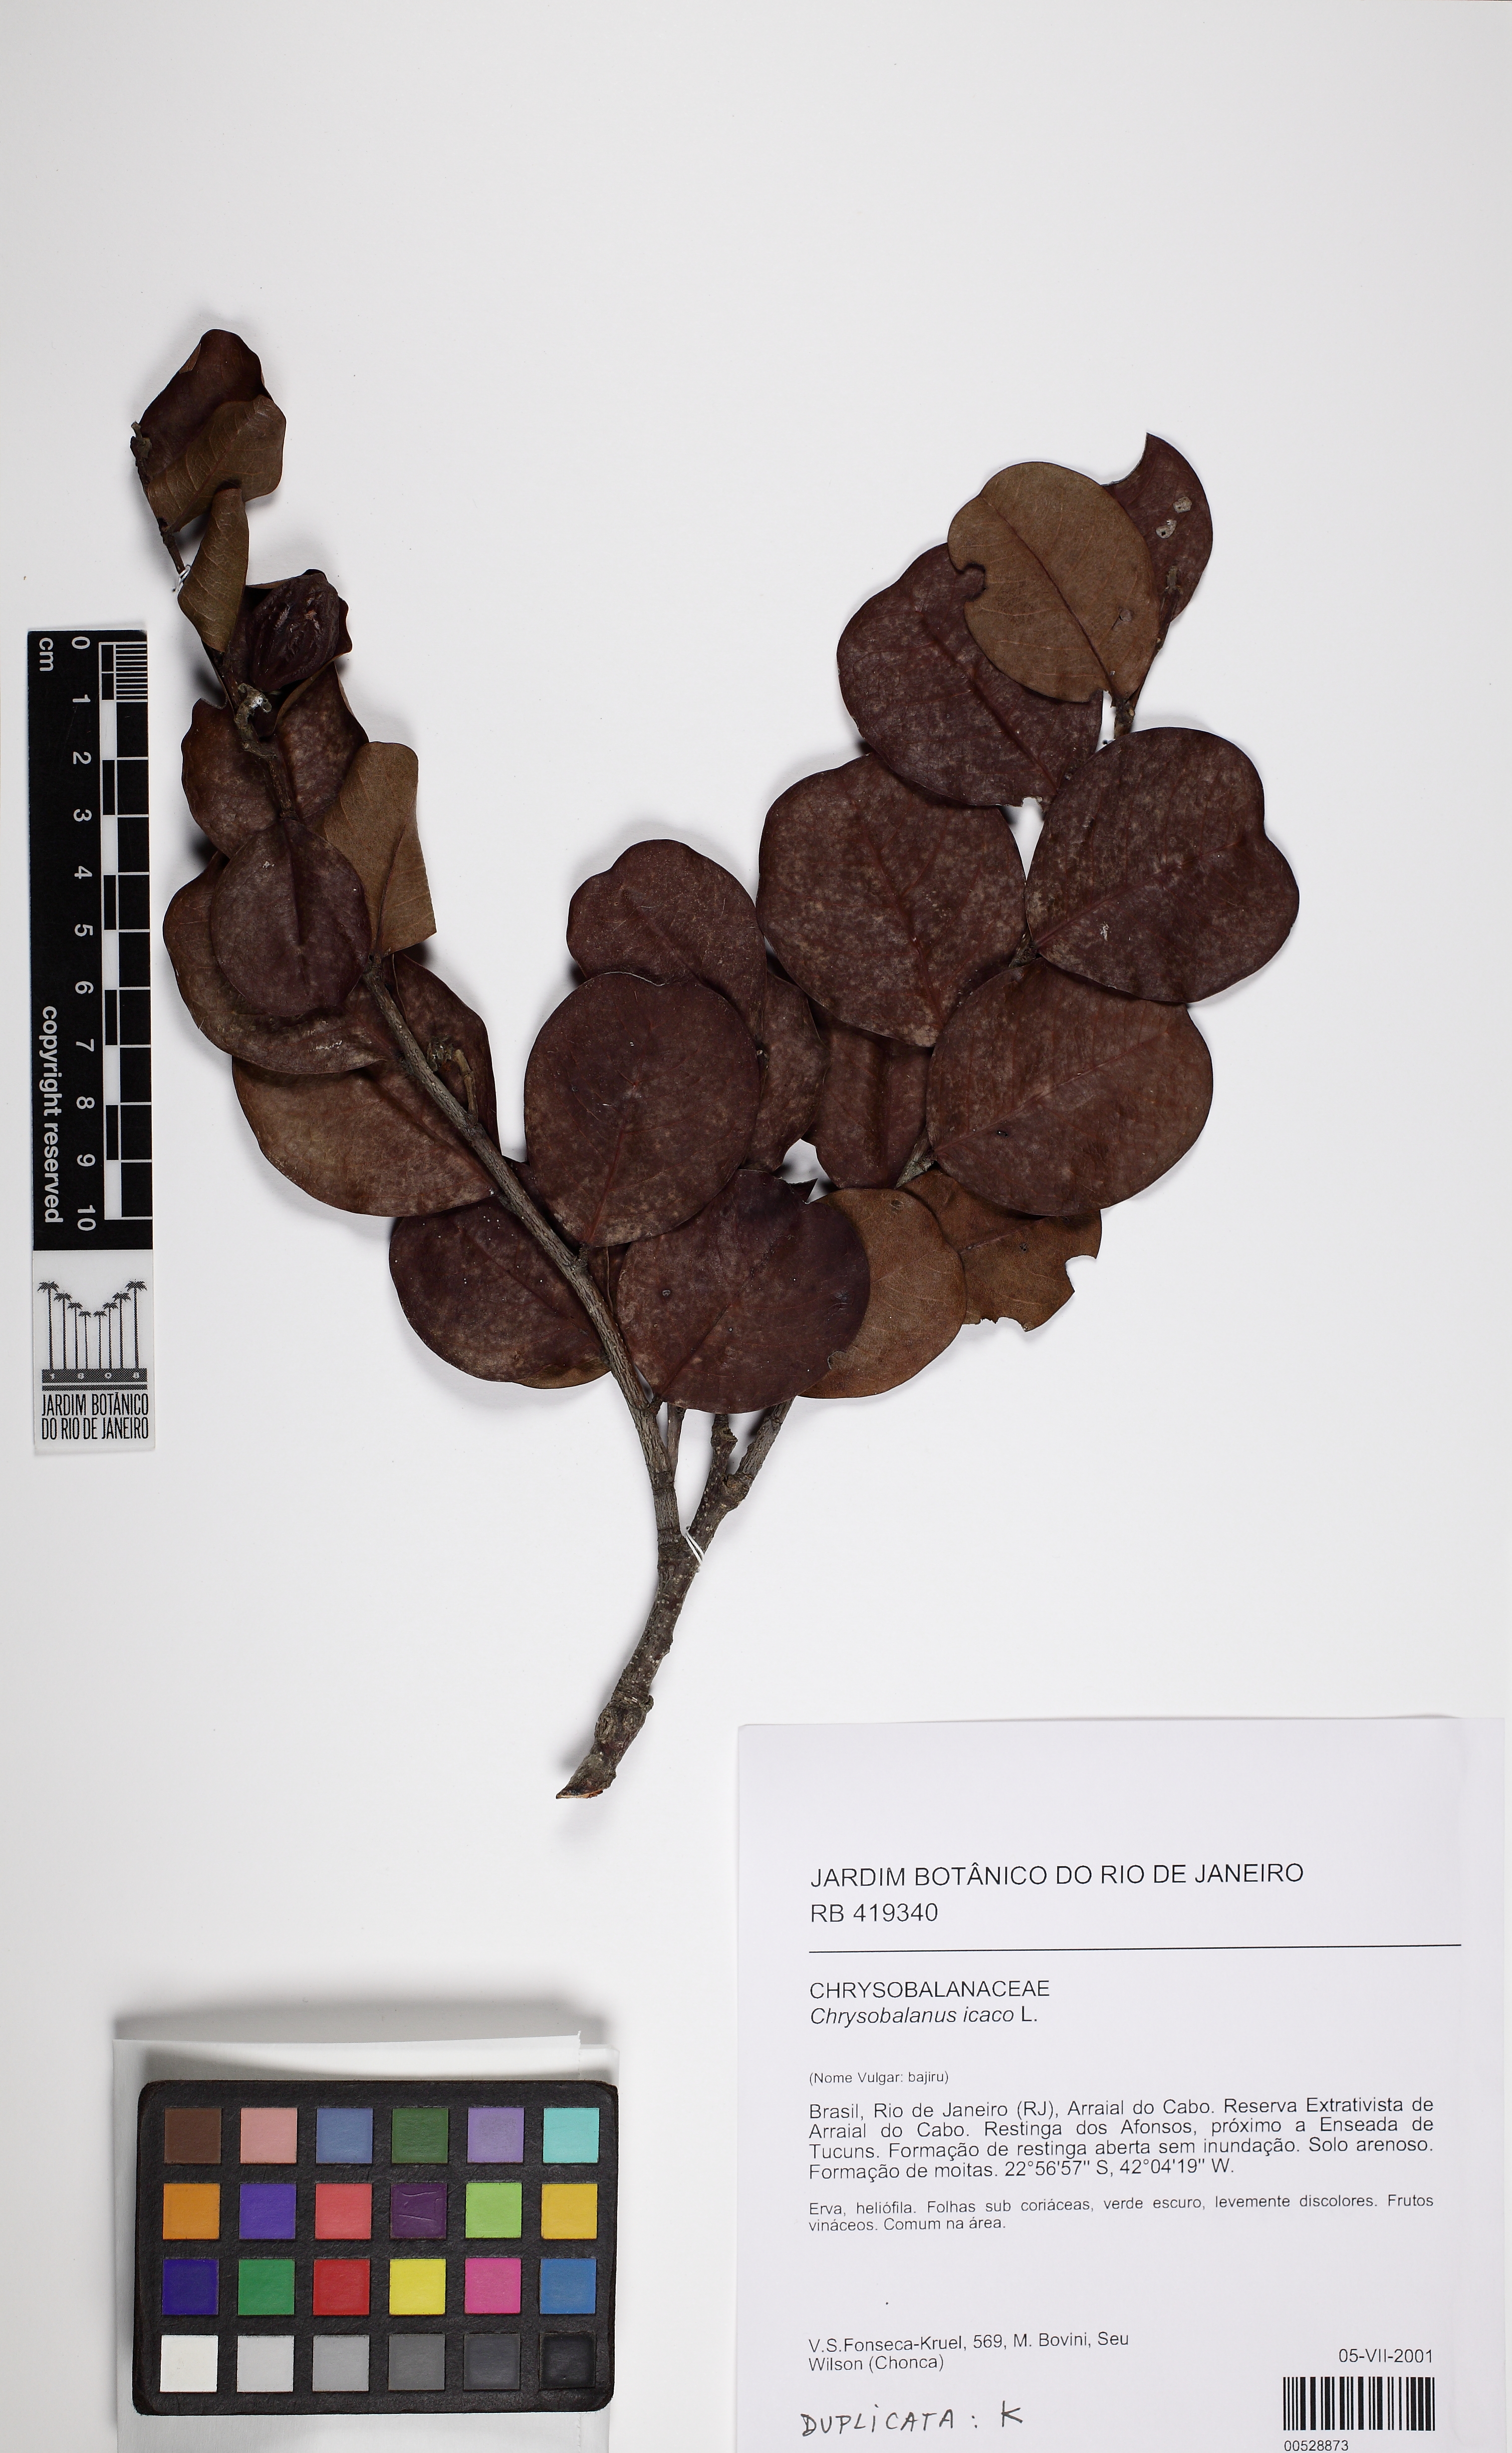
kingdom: Plantae
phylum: Tracheophyta
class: Magnoliopsida
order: Malpighiales
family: Chrysobalanaceae
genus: Chrysobalanus
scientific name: Chrysobalanus icaco
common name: Coco plum
